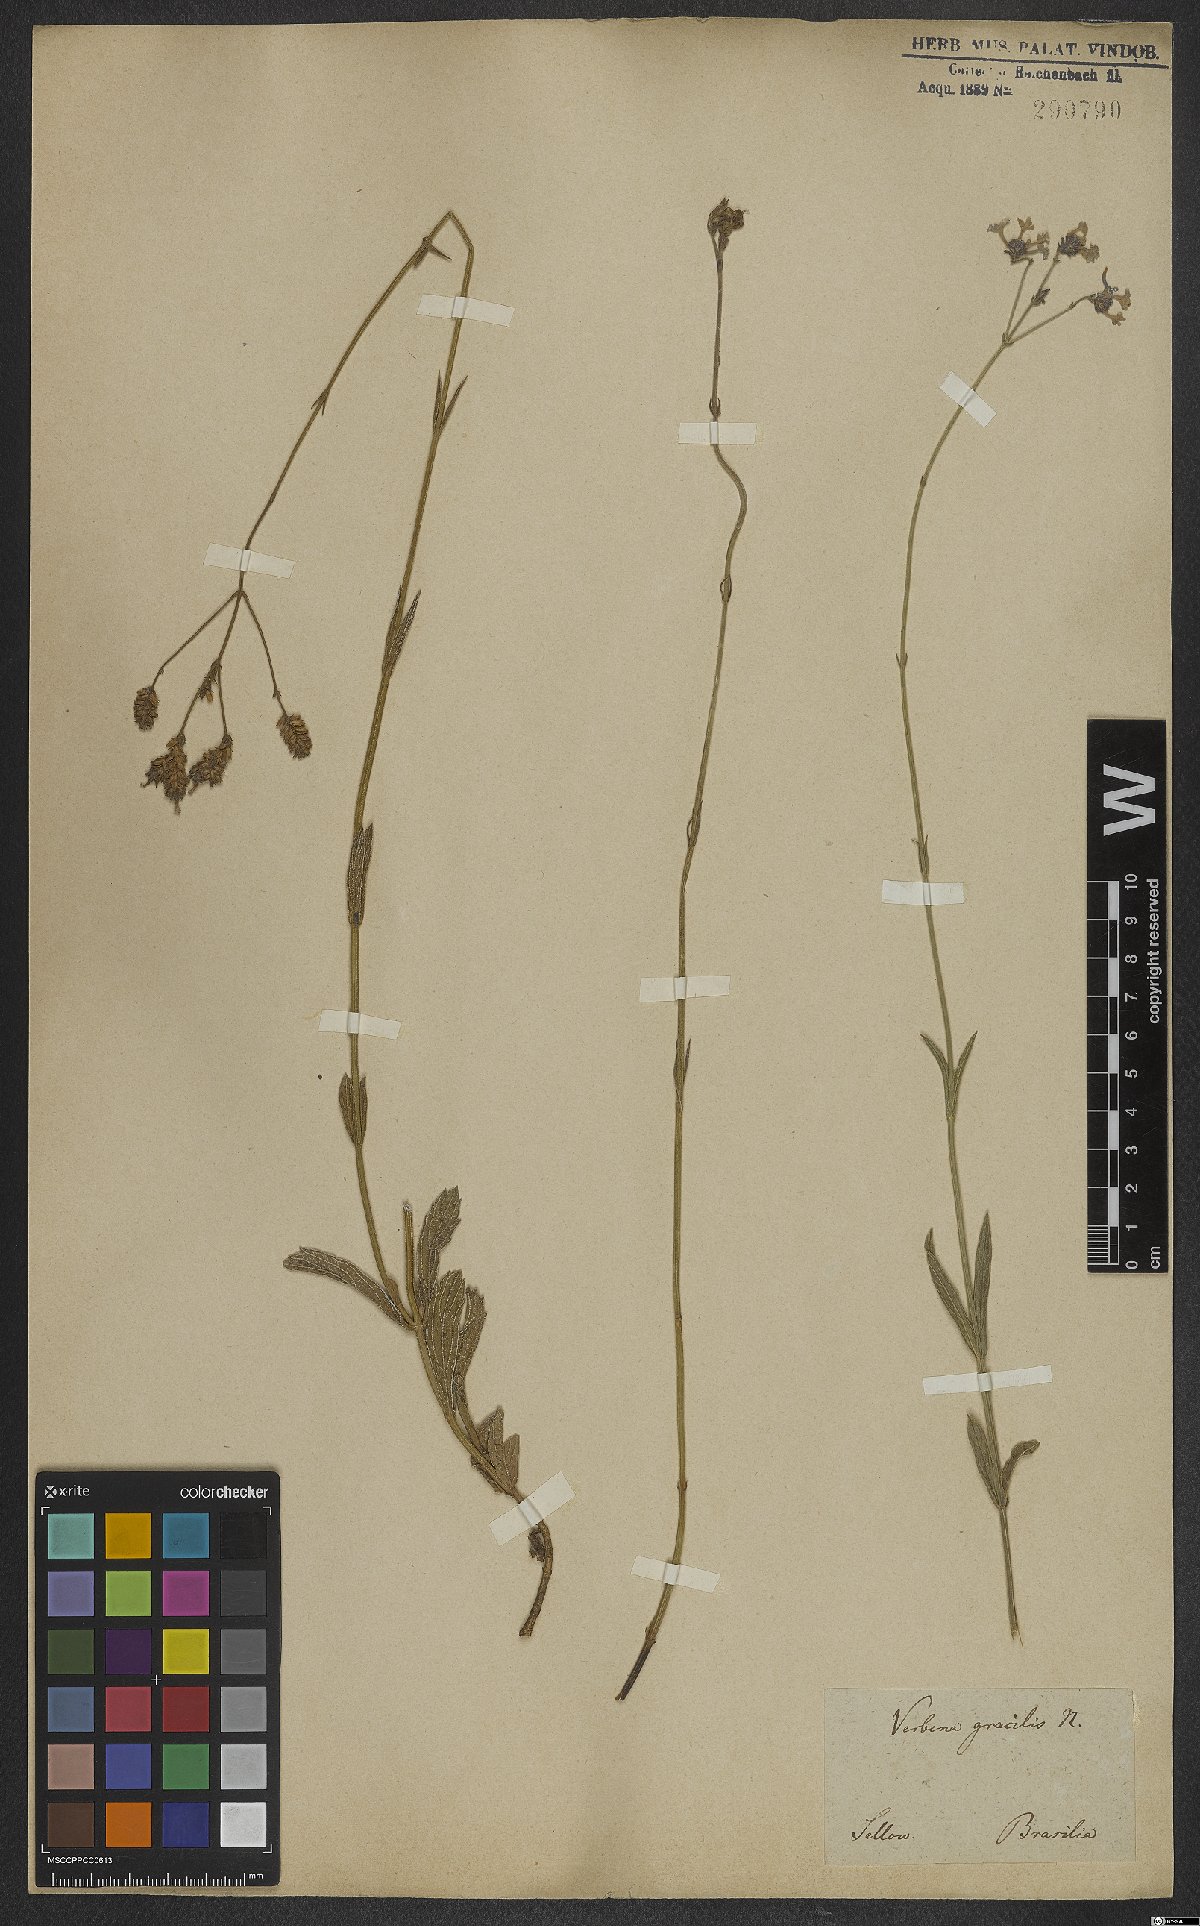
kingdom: Plantae
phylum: Tracheophyta
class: Magnoliopsida
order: Lamiales
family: Verbenaceae
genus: Verbena
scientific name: Verbena intermedia
